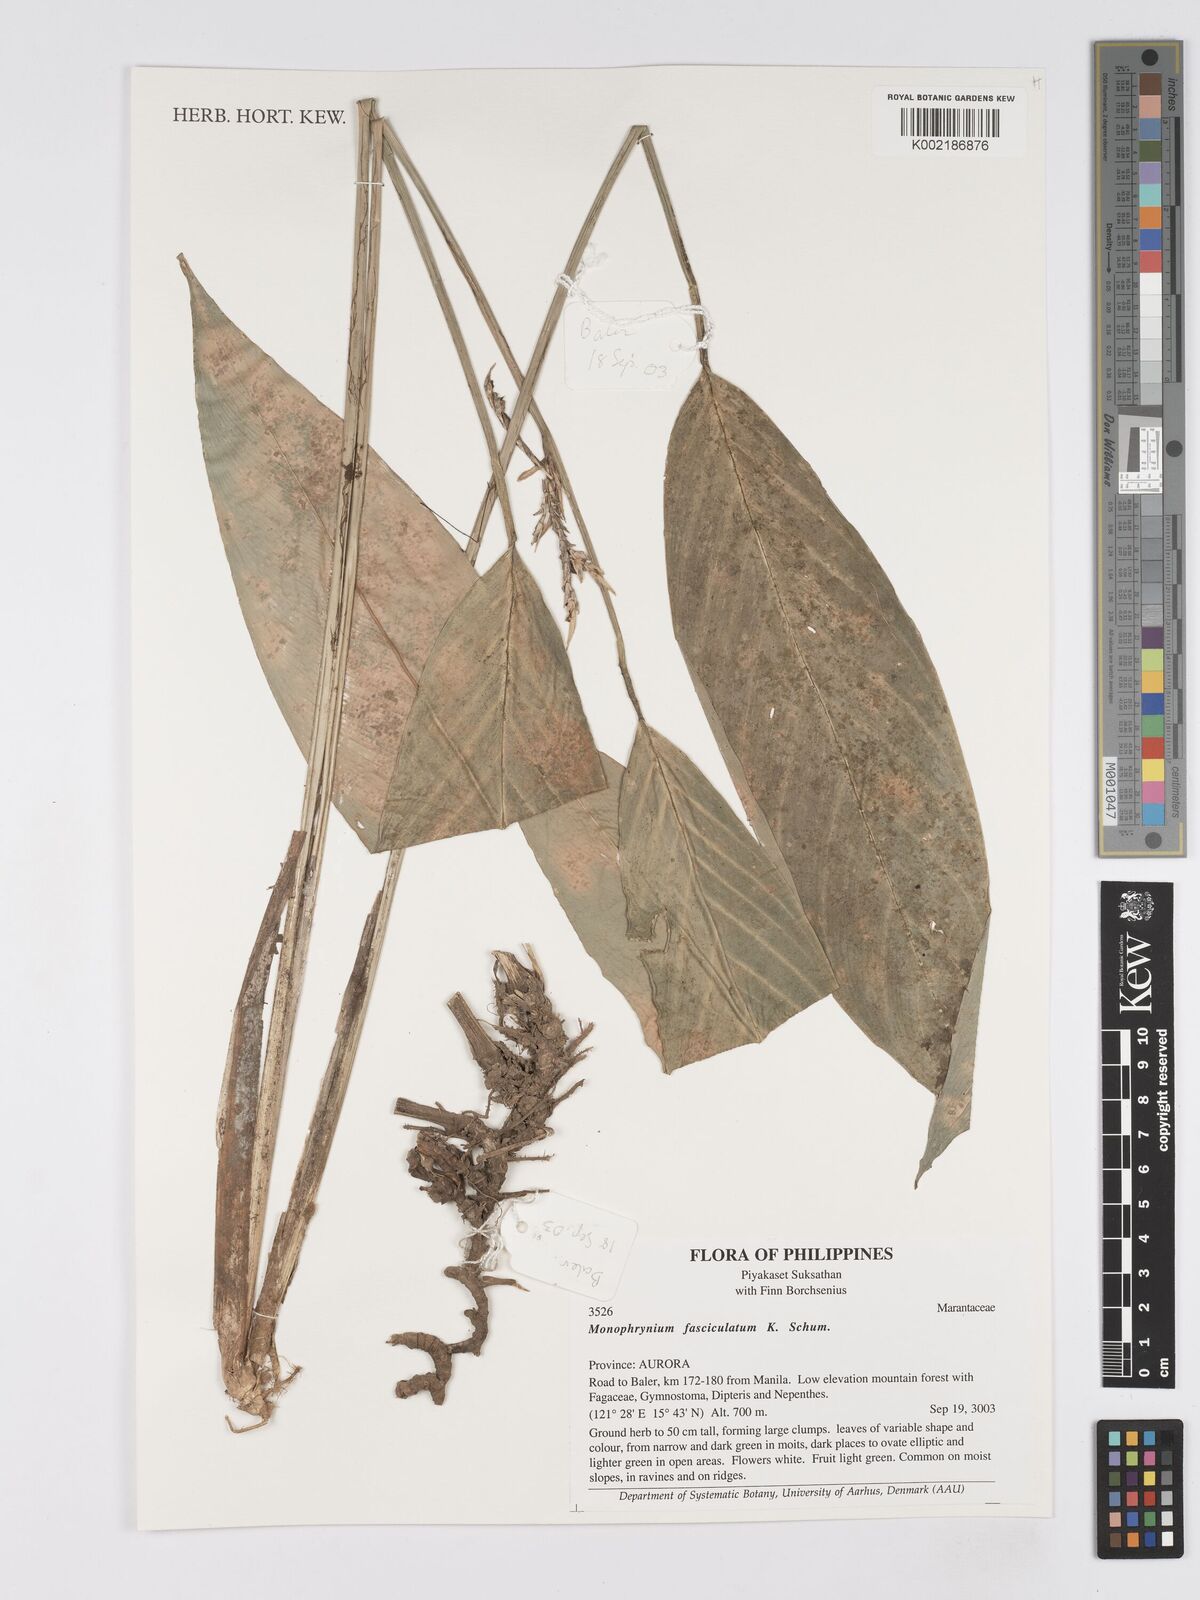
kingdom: Plantae
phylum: Tracheophyta
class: Liliopsida
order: Zingiberales
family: Marantaceae
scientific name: Marantaceae
